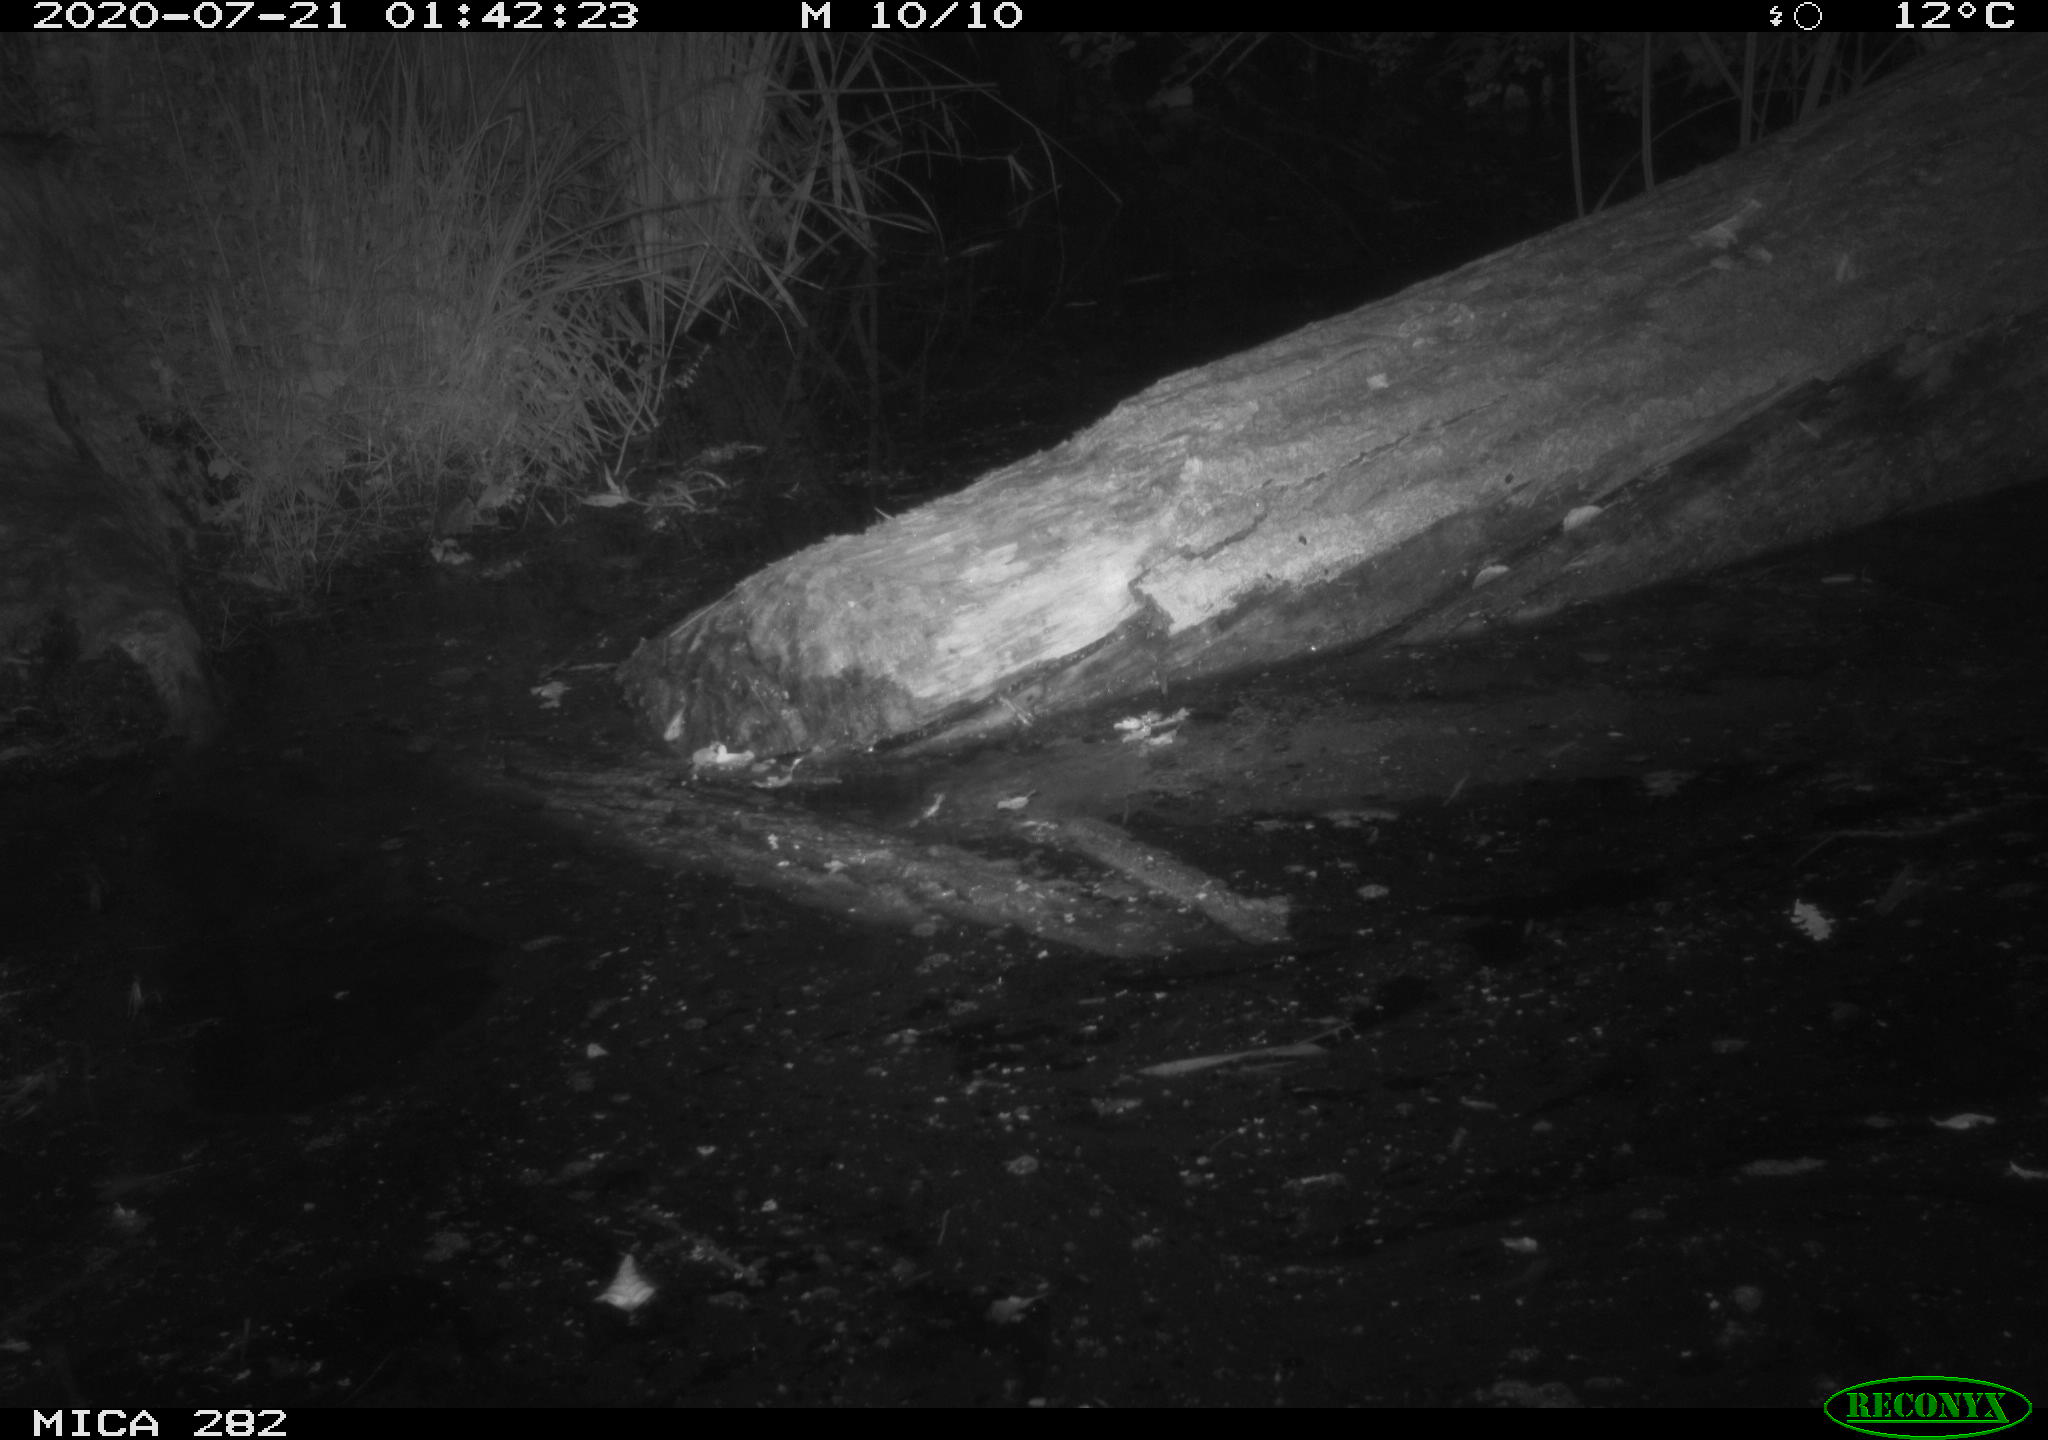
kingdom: Animalia
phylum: Chordata
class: Mammalia
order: Rodentia
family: Castoridae
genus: Castor
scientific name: Castor fiber
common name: Eurasian beaver
